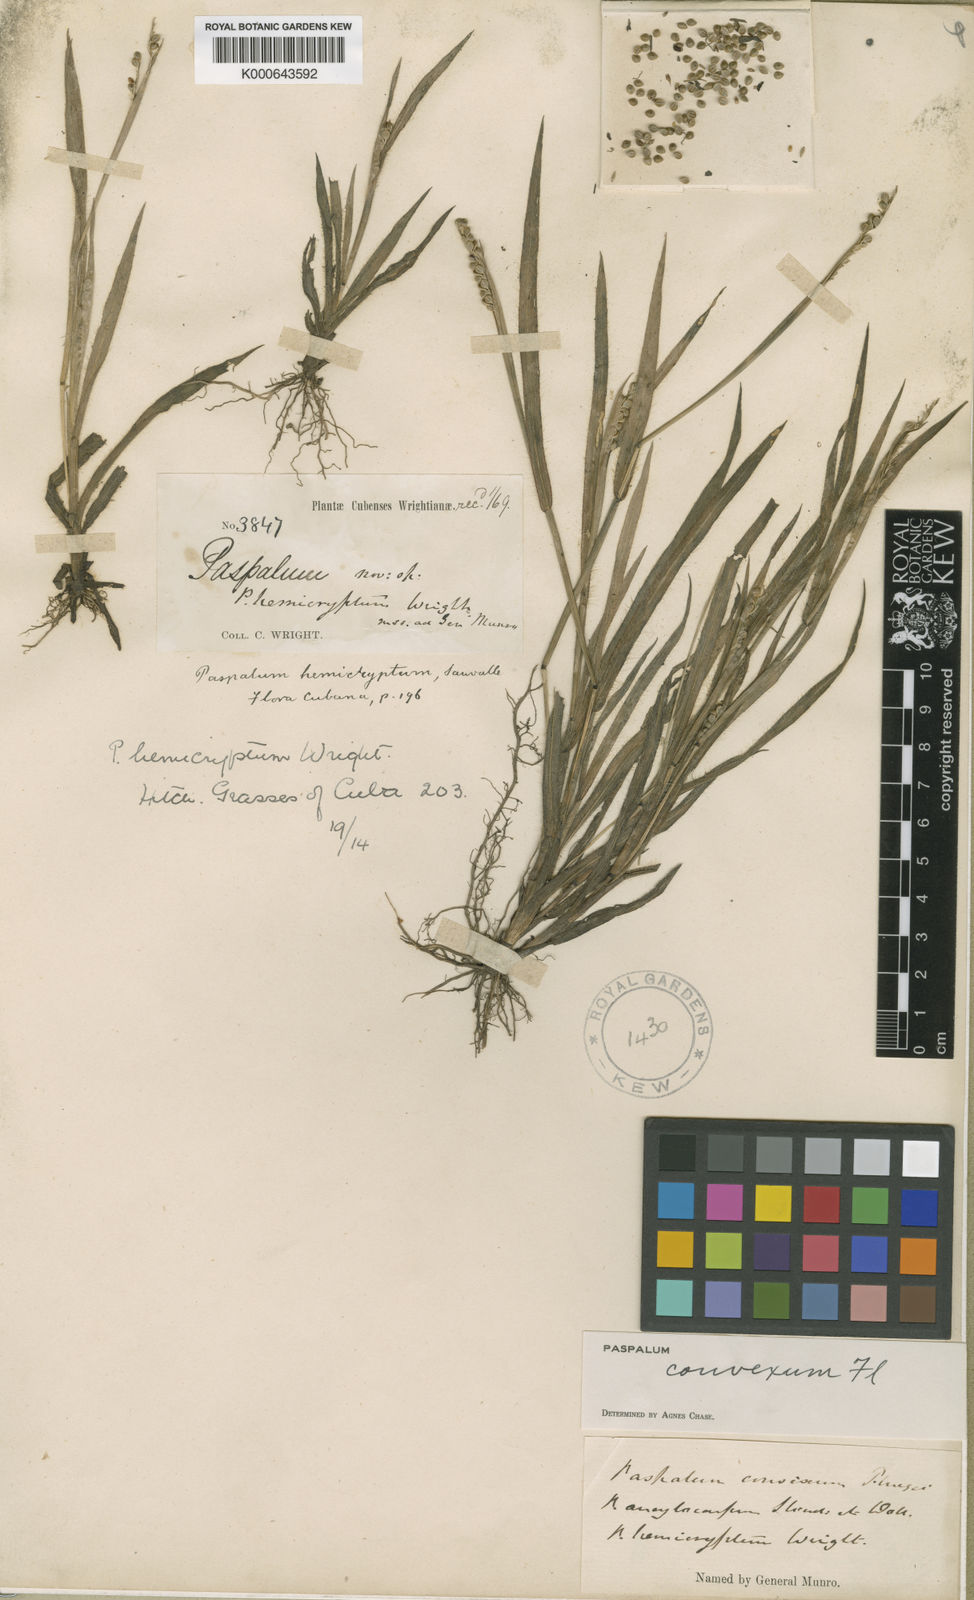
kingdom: Plantae
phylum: Tracheophyta
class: Liliopsida
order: Poales
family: Poaceae
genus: Paspalum
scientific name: Paspalum
